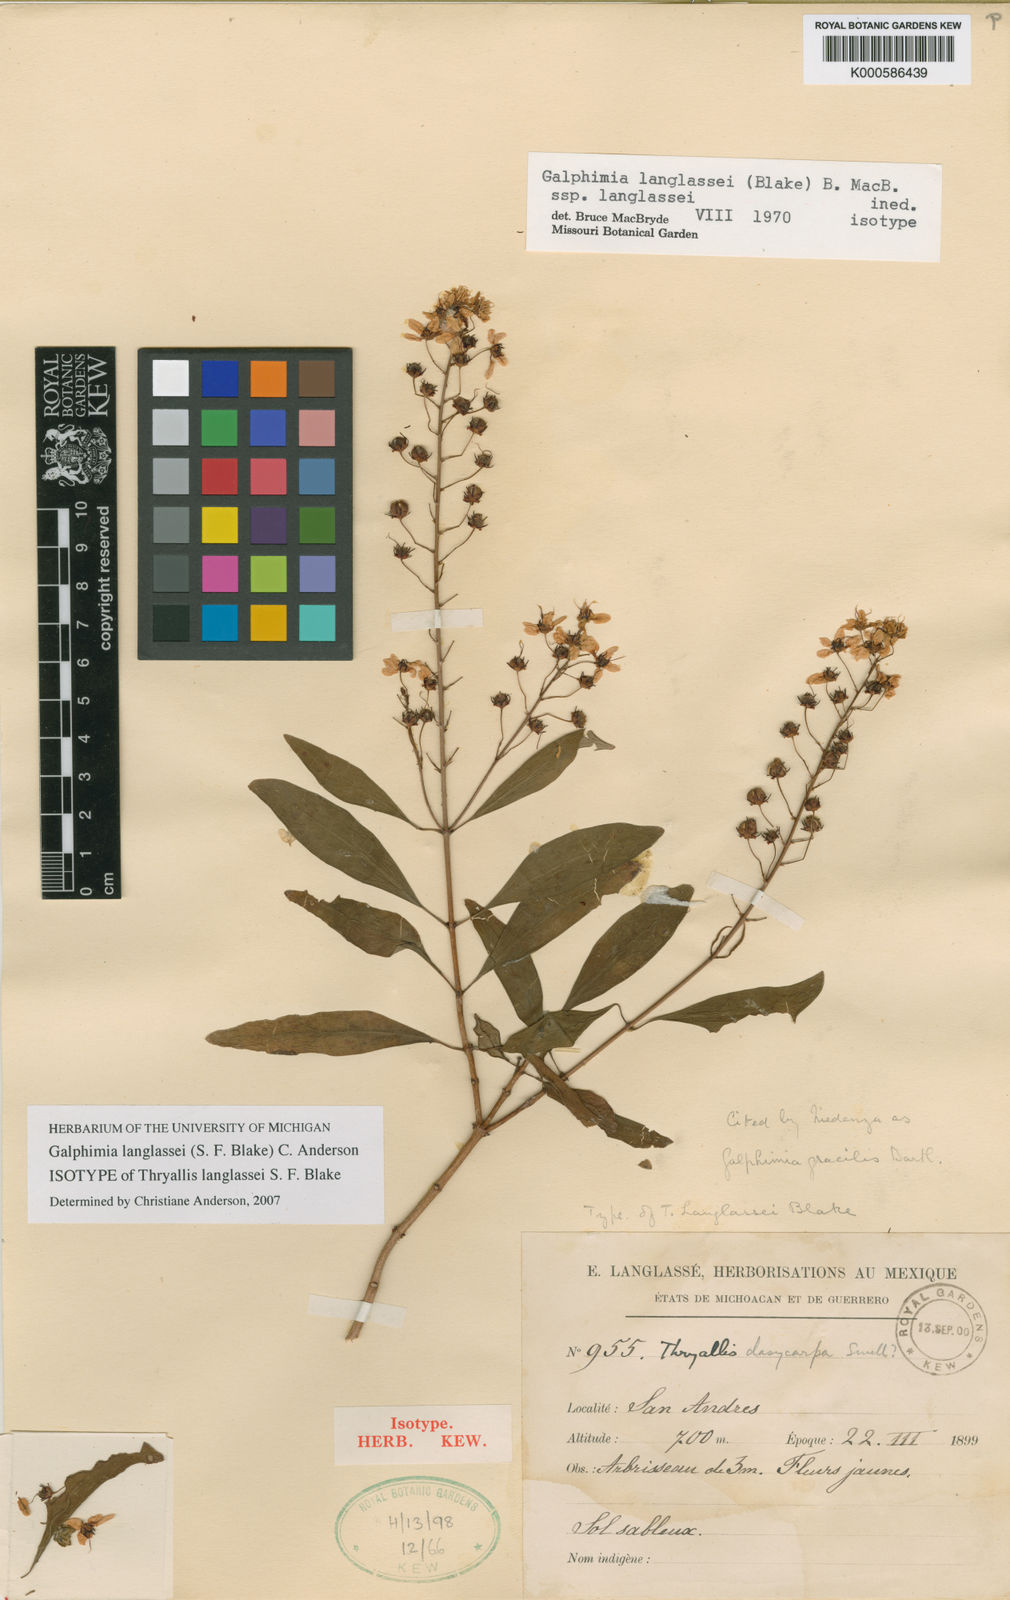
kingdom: Plantae
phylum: Tracheophyta
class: Magnoliopsida
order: Malpighiales
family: Malpighiaceae
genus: Galphimia
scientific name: Galphimia
